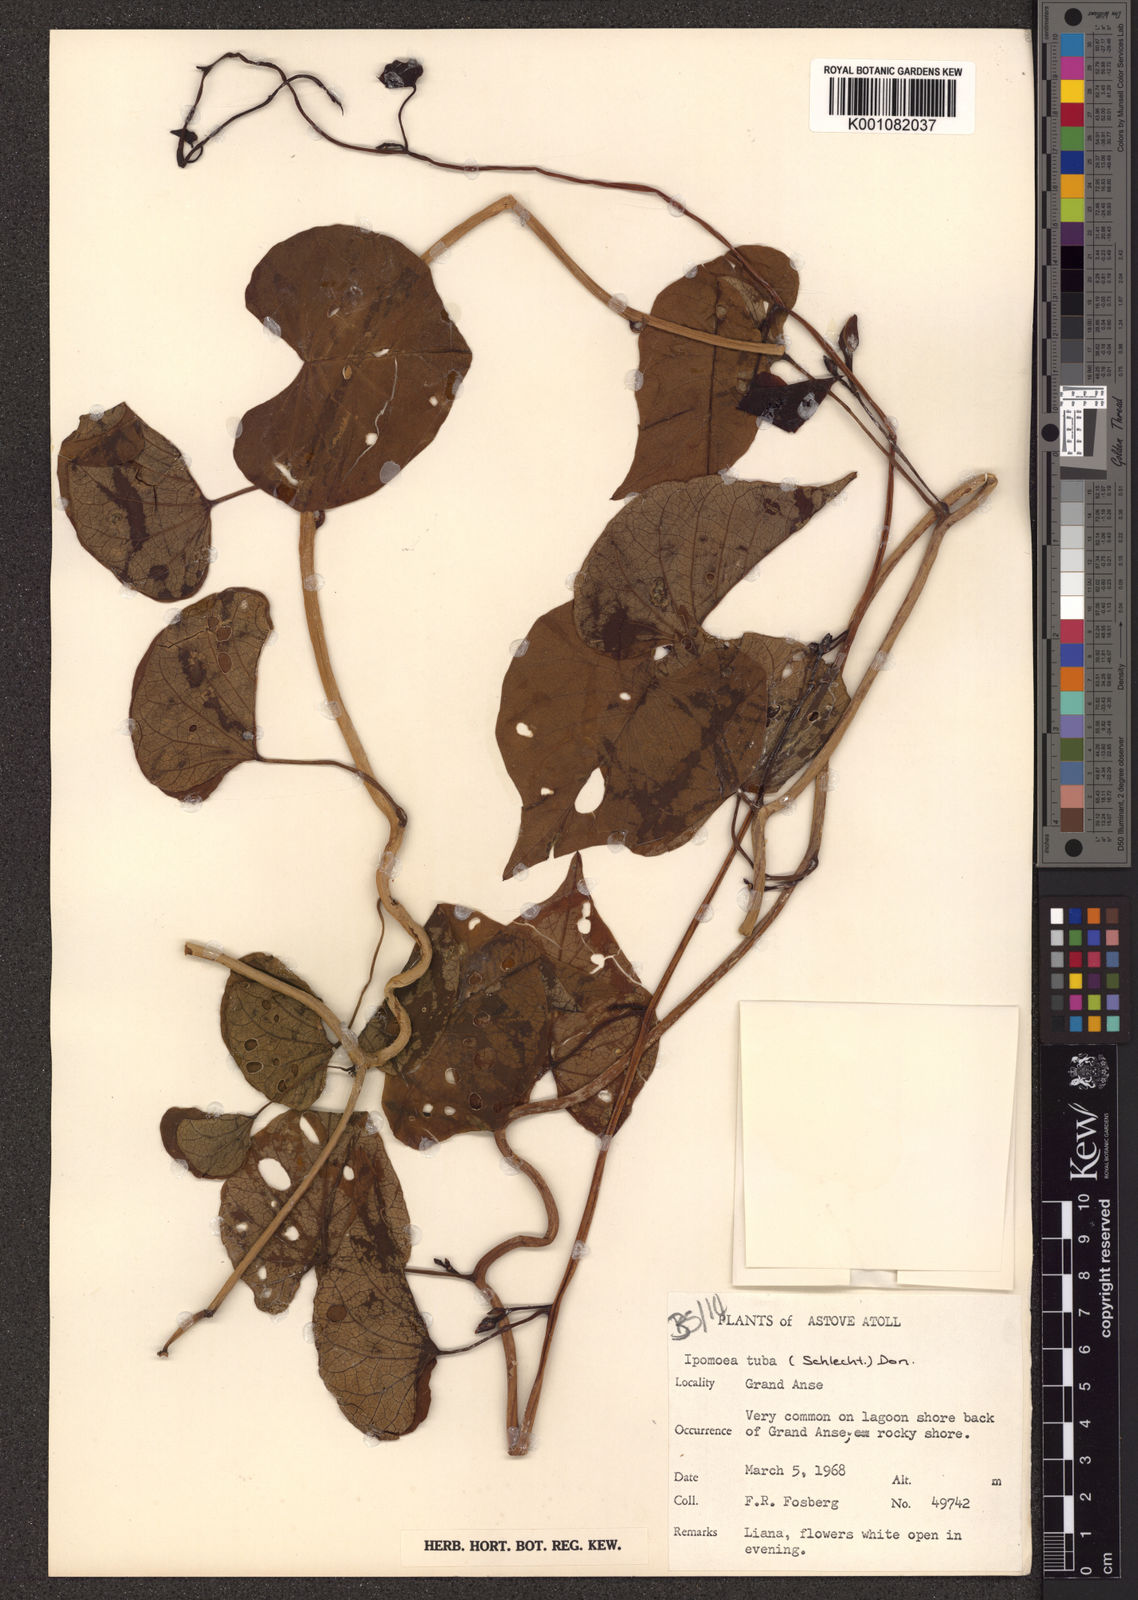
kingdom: Plantae
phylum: Tracheophyta
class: Magnoliopsida
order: Solanales
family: Convolvulaceae
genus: Ipomoea
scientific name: Ipomoea violacea
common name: Beach moonflower
